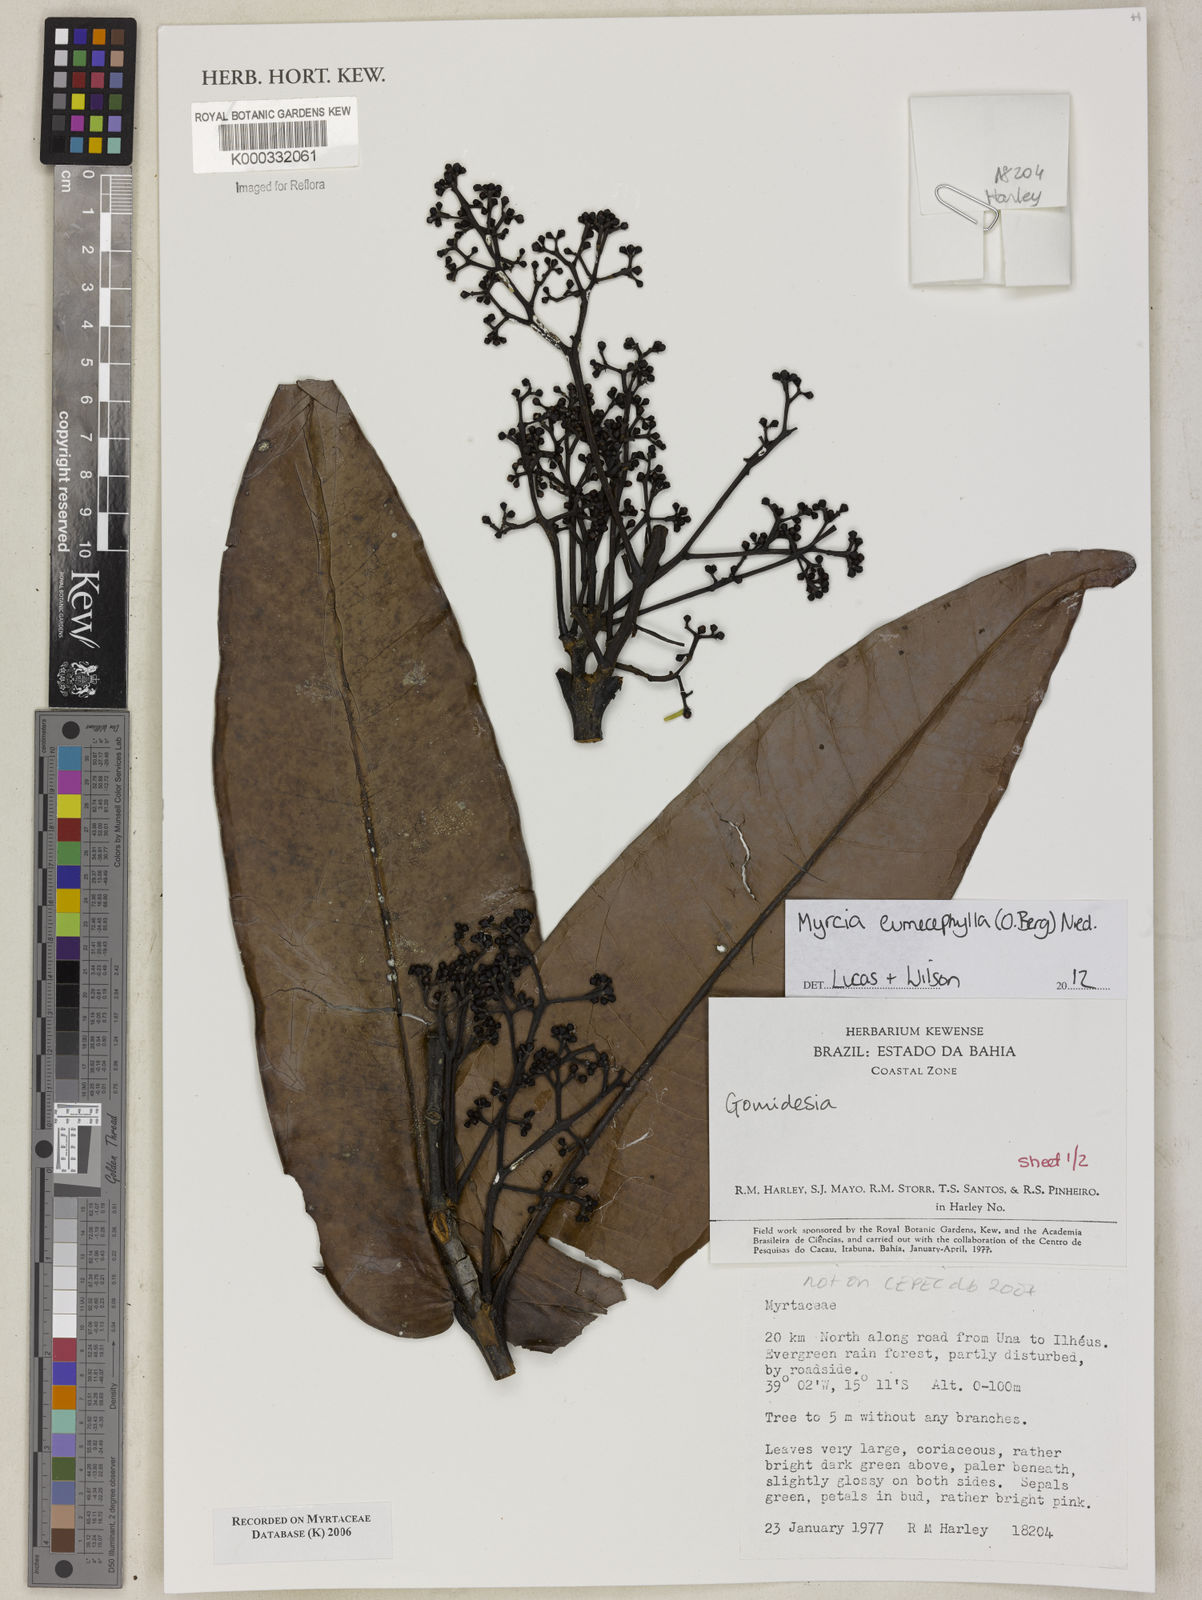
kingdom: Plantae
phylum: Tracheophyta
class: Magnoliopsida
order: Myrtales
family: Myrtaceae
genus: Myrcia
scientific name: Myrcia eumecephylla
